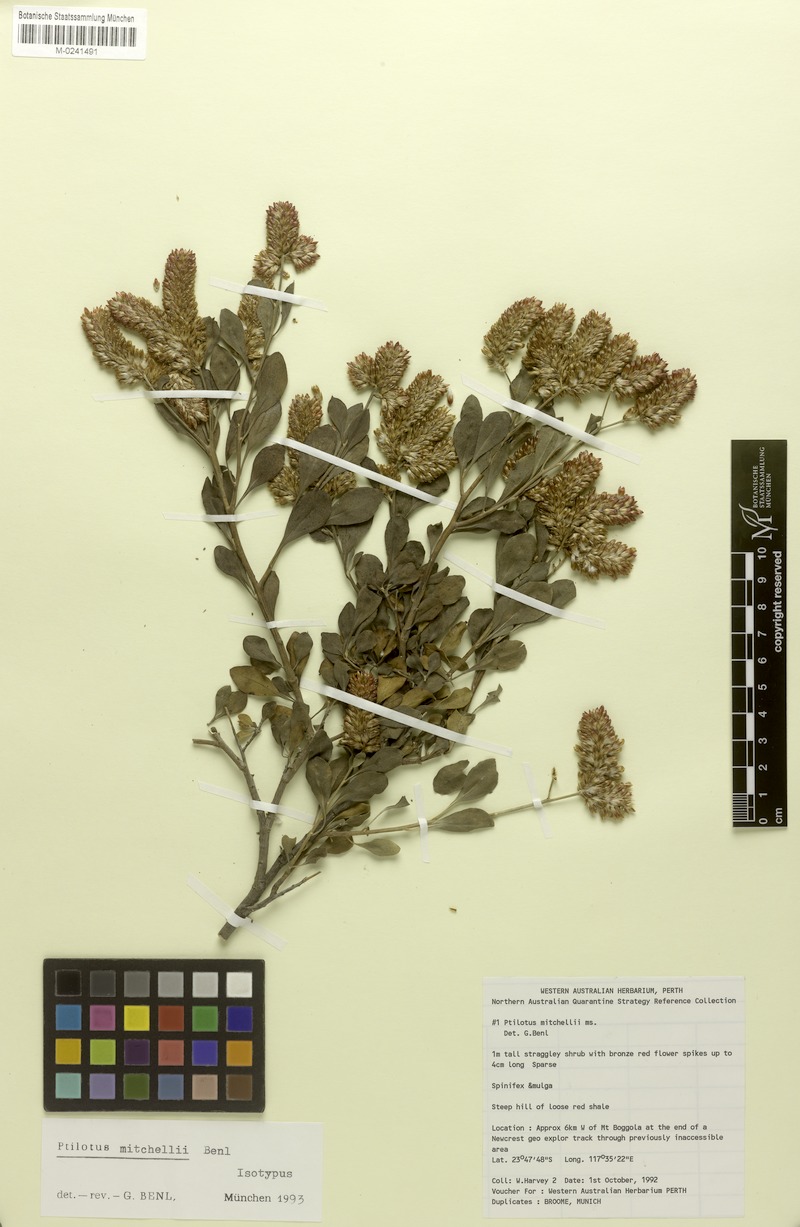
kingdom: Plantae
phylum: Tracheophyta
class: Magnoliopsida
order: Caryophyllales
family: Amaranthaceae
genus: Ptilotus
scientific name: Ptilotus mitchellii
